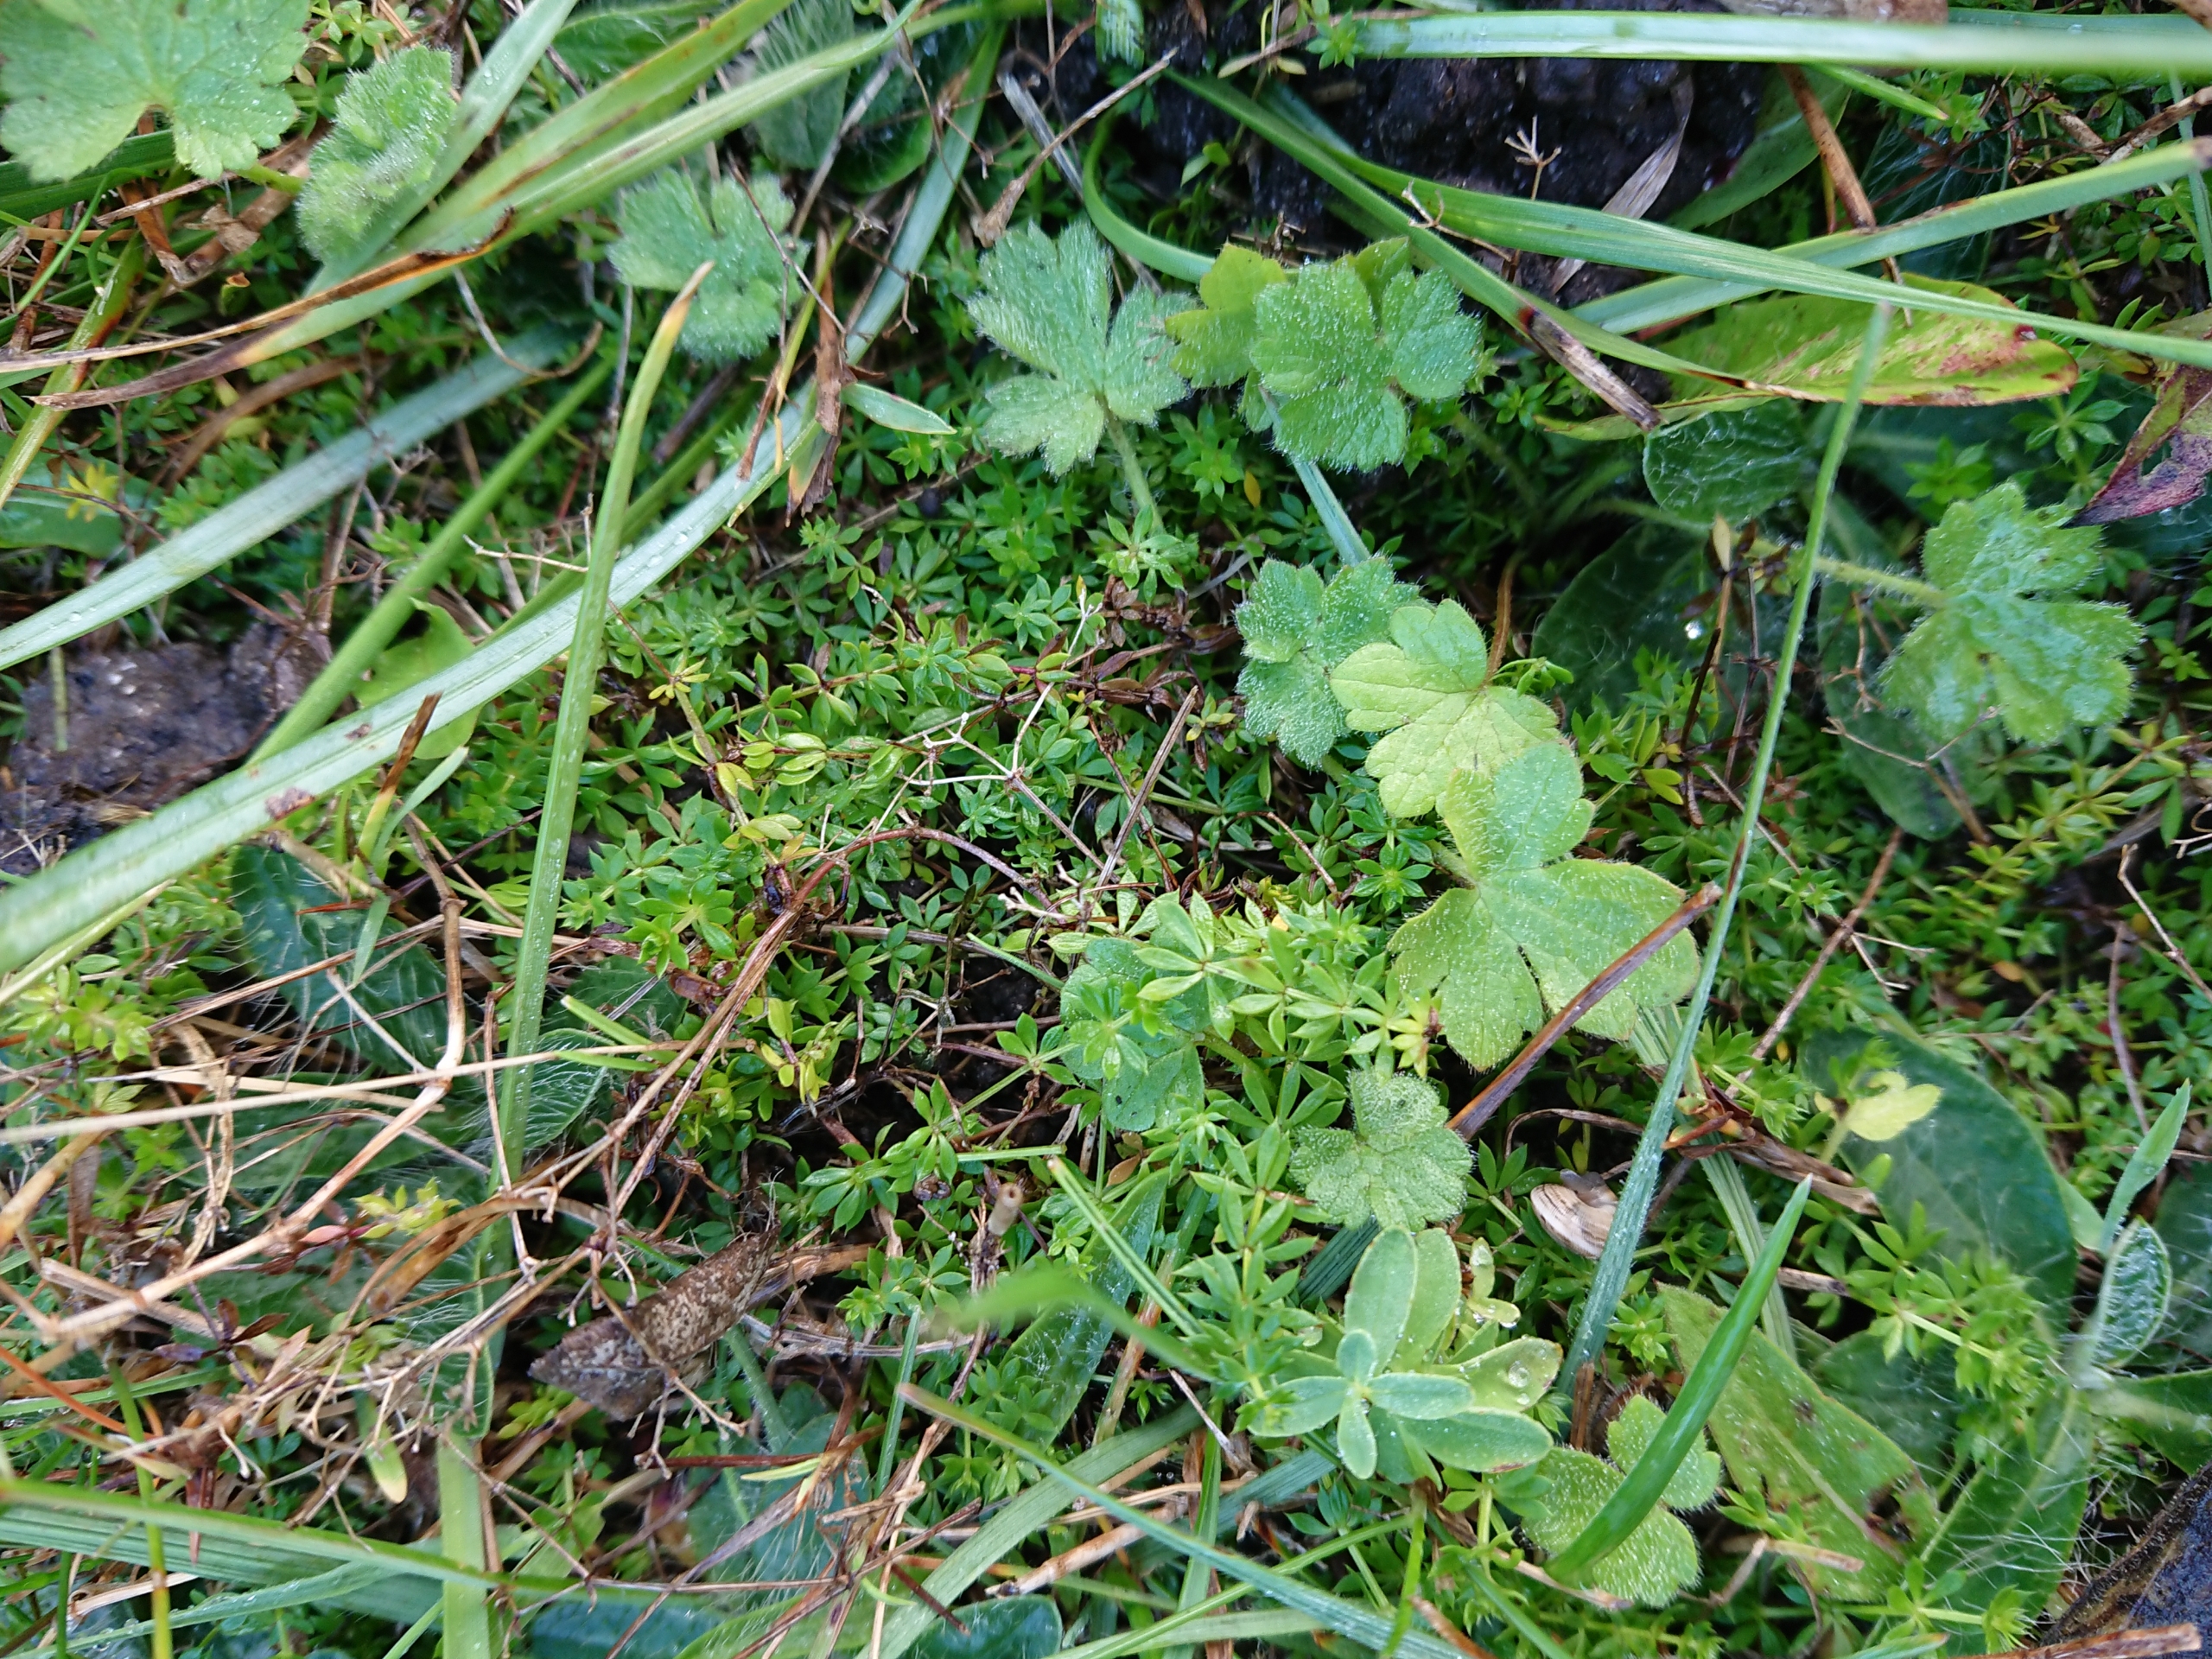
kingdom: Plantae
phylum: Tracheophyta
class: Magnoliopsida
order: Gentianales
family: Rubiaceae
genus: Galium
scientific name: Galium sterneri
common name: Liden snerre
